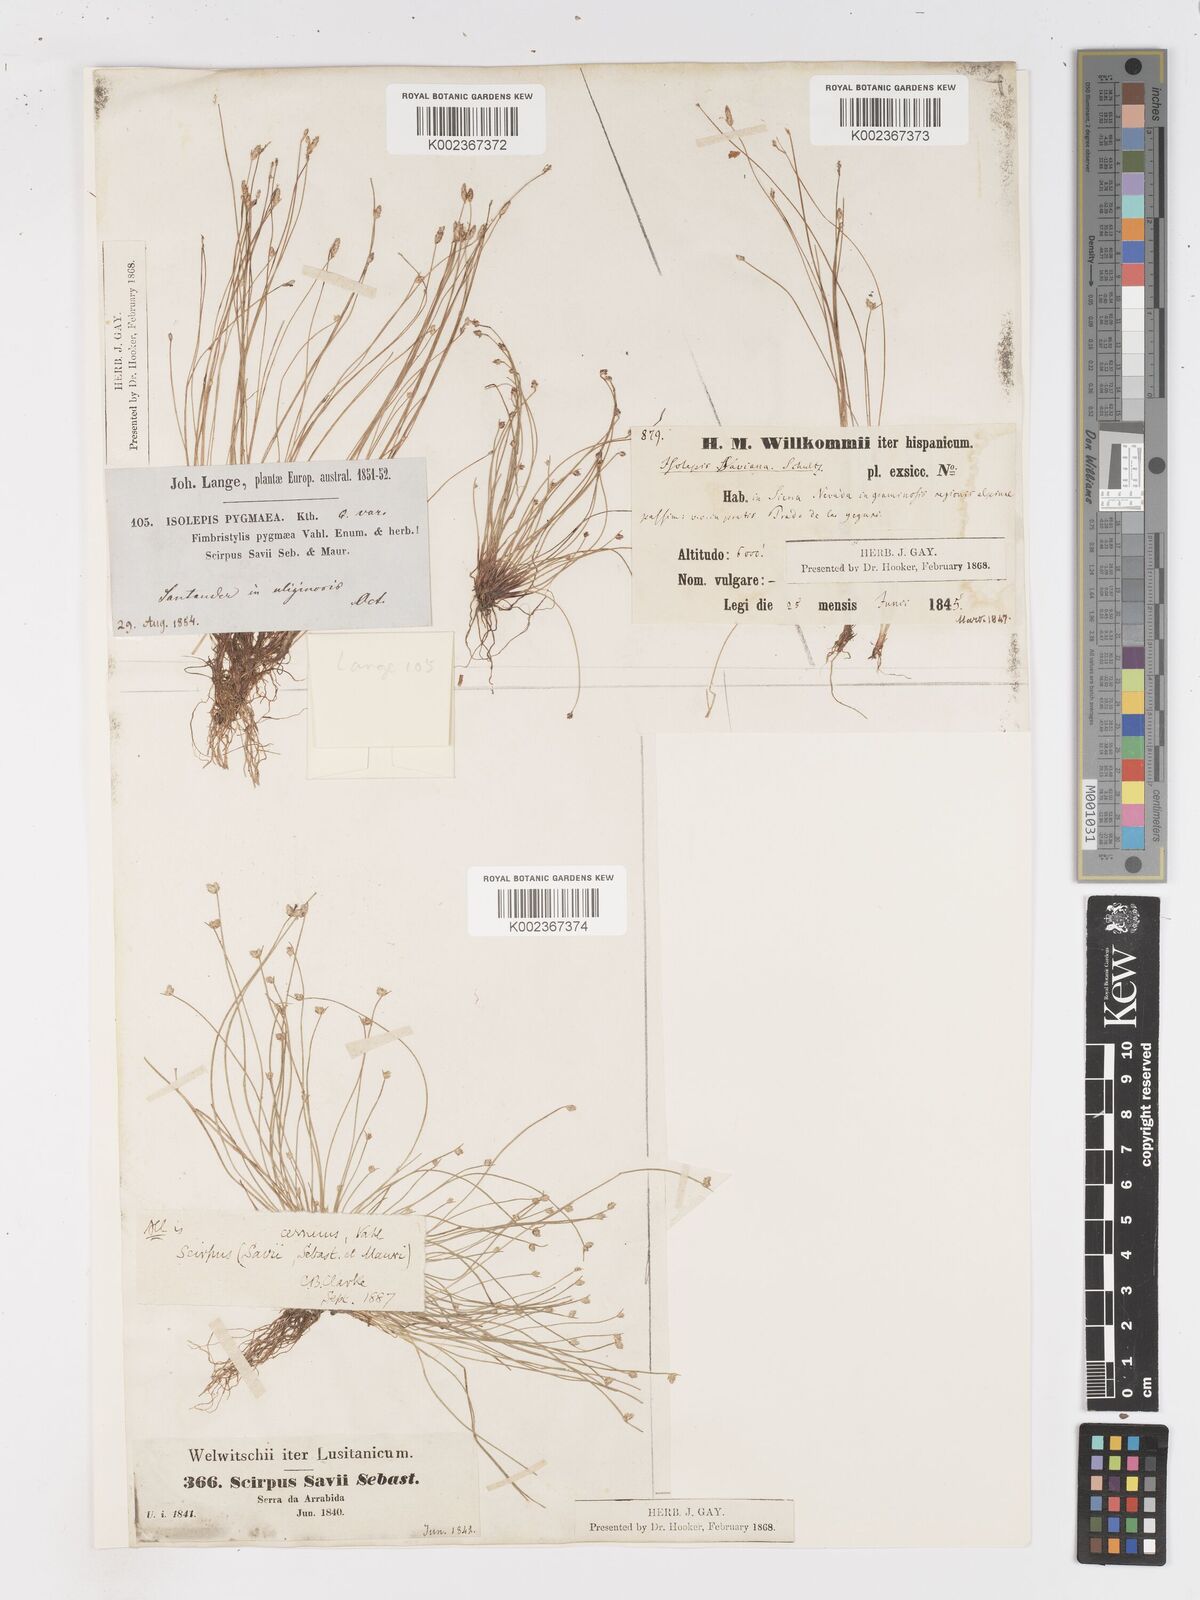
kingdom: Plantae
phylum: Tracheophyta
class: Liliopsida
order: Poales
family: Cyperaceae
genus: Isolepis
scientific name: Isolepis cernua
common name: Slender club-rush
